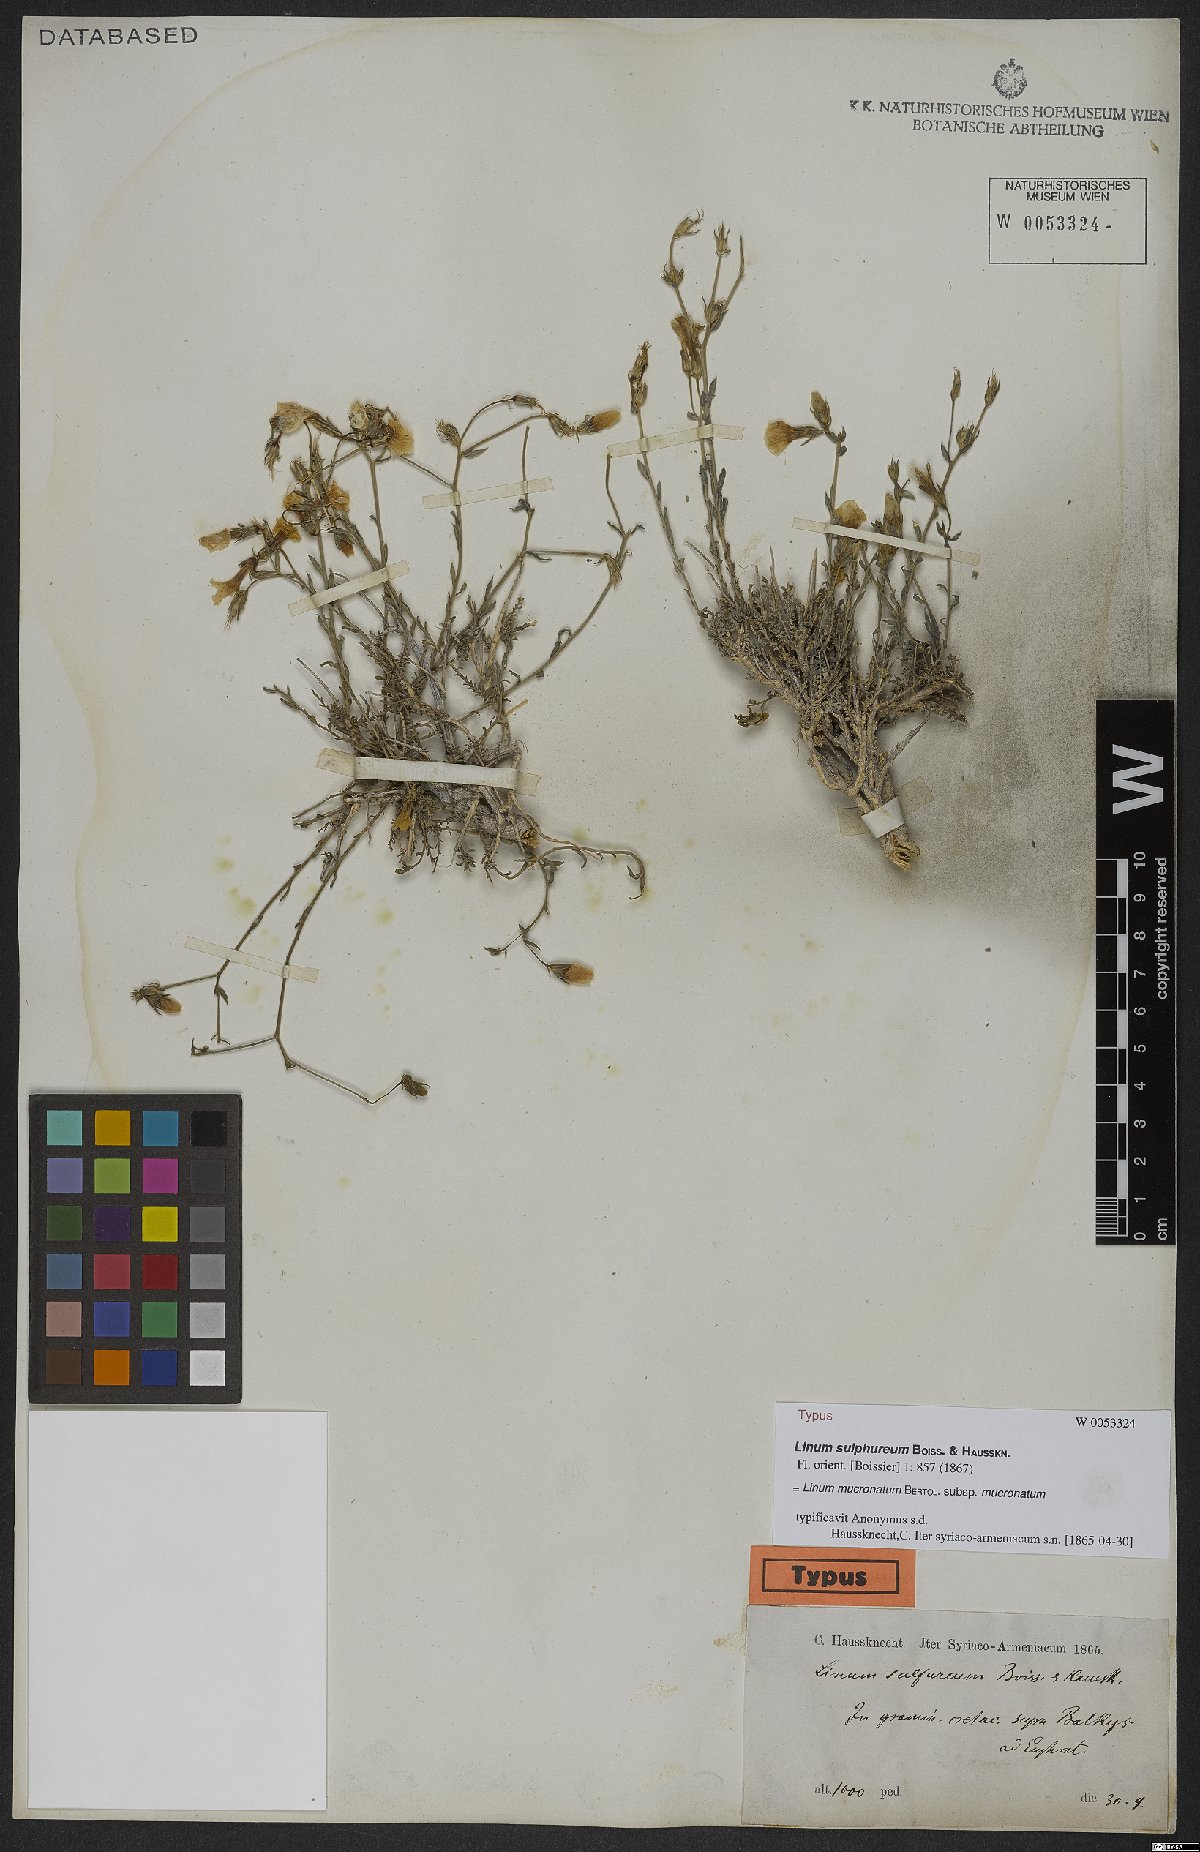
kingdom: Plantae
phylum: Tracheophyta
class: Magnoliopsida
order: Malpighiales
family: Linaceae
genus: Linum
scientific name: Linum mucronatum
